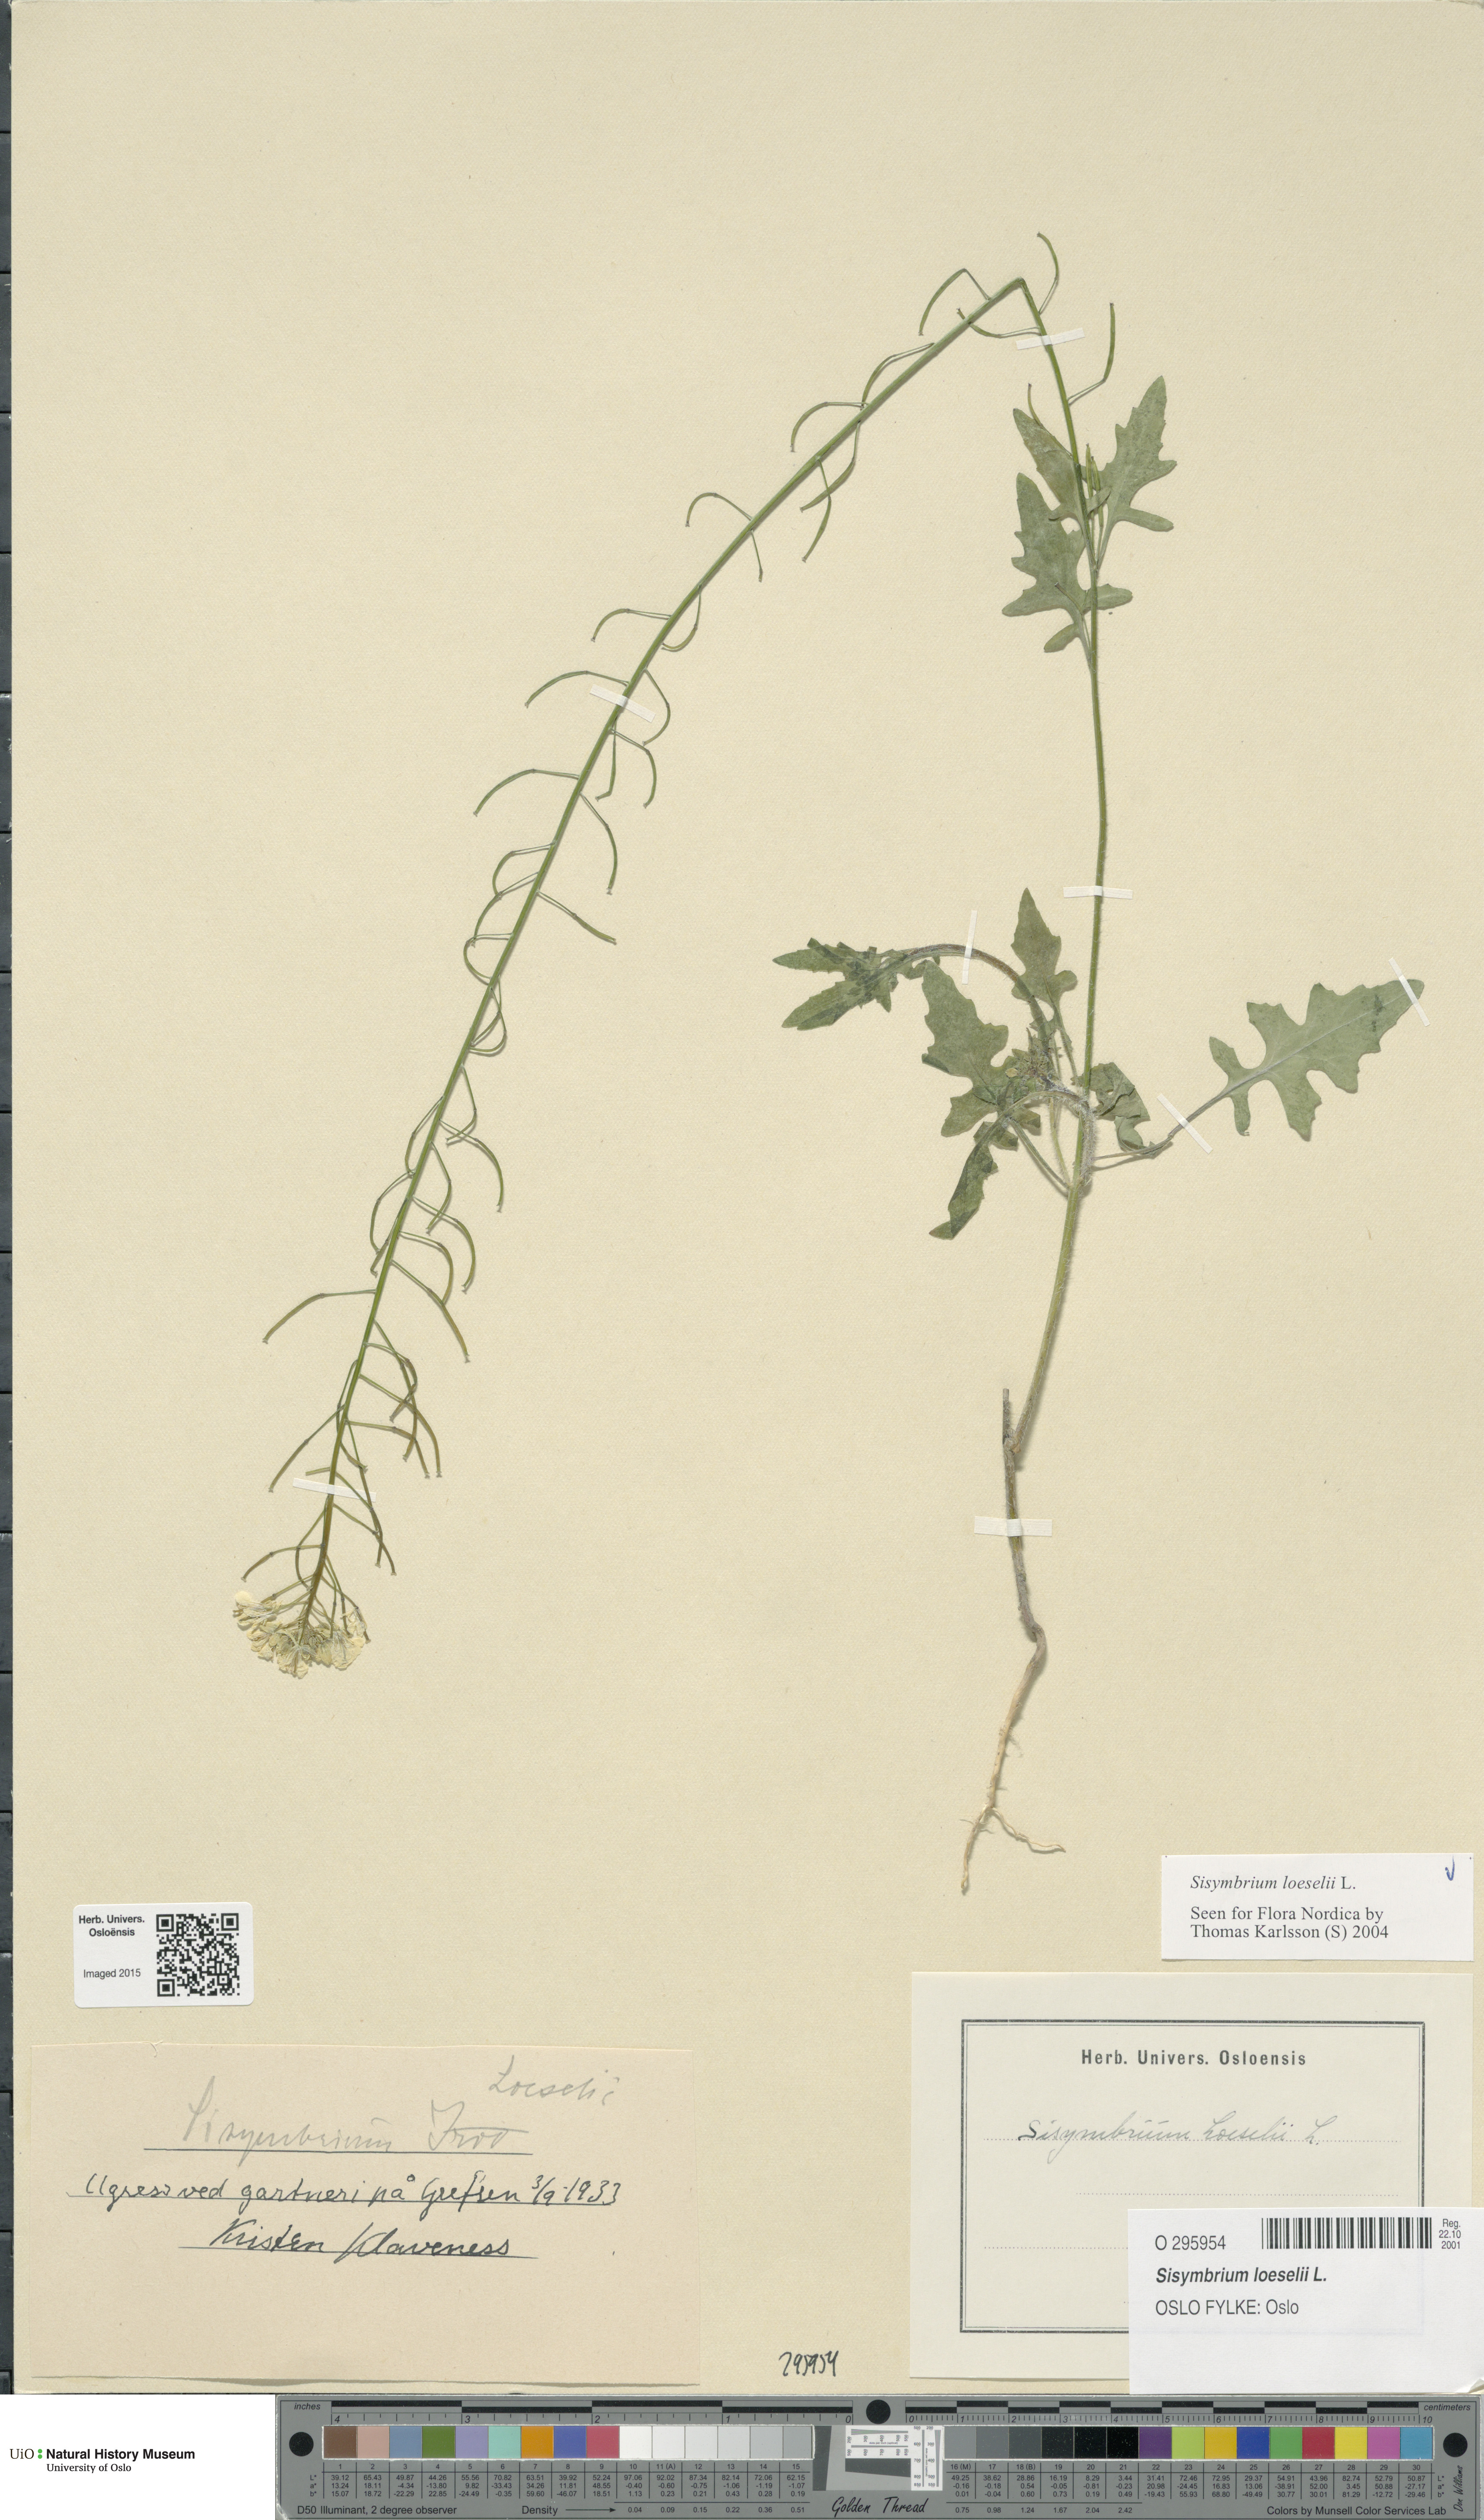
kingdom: Plantae
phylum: Tracheophyta
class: Magnoliopsida
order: Brassicales
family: Brassicaceae
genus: Sisymbrium
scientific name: Sisymbrium loeselii
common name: False london-rocket
